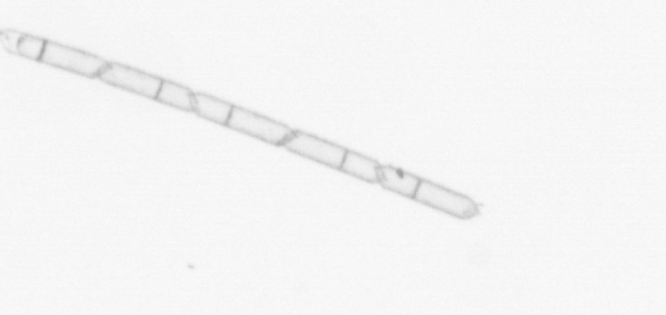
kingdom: Chromista
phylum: Ochrophyta
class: Bacillariophyceae
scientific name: Bacillariophyceae
